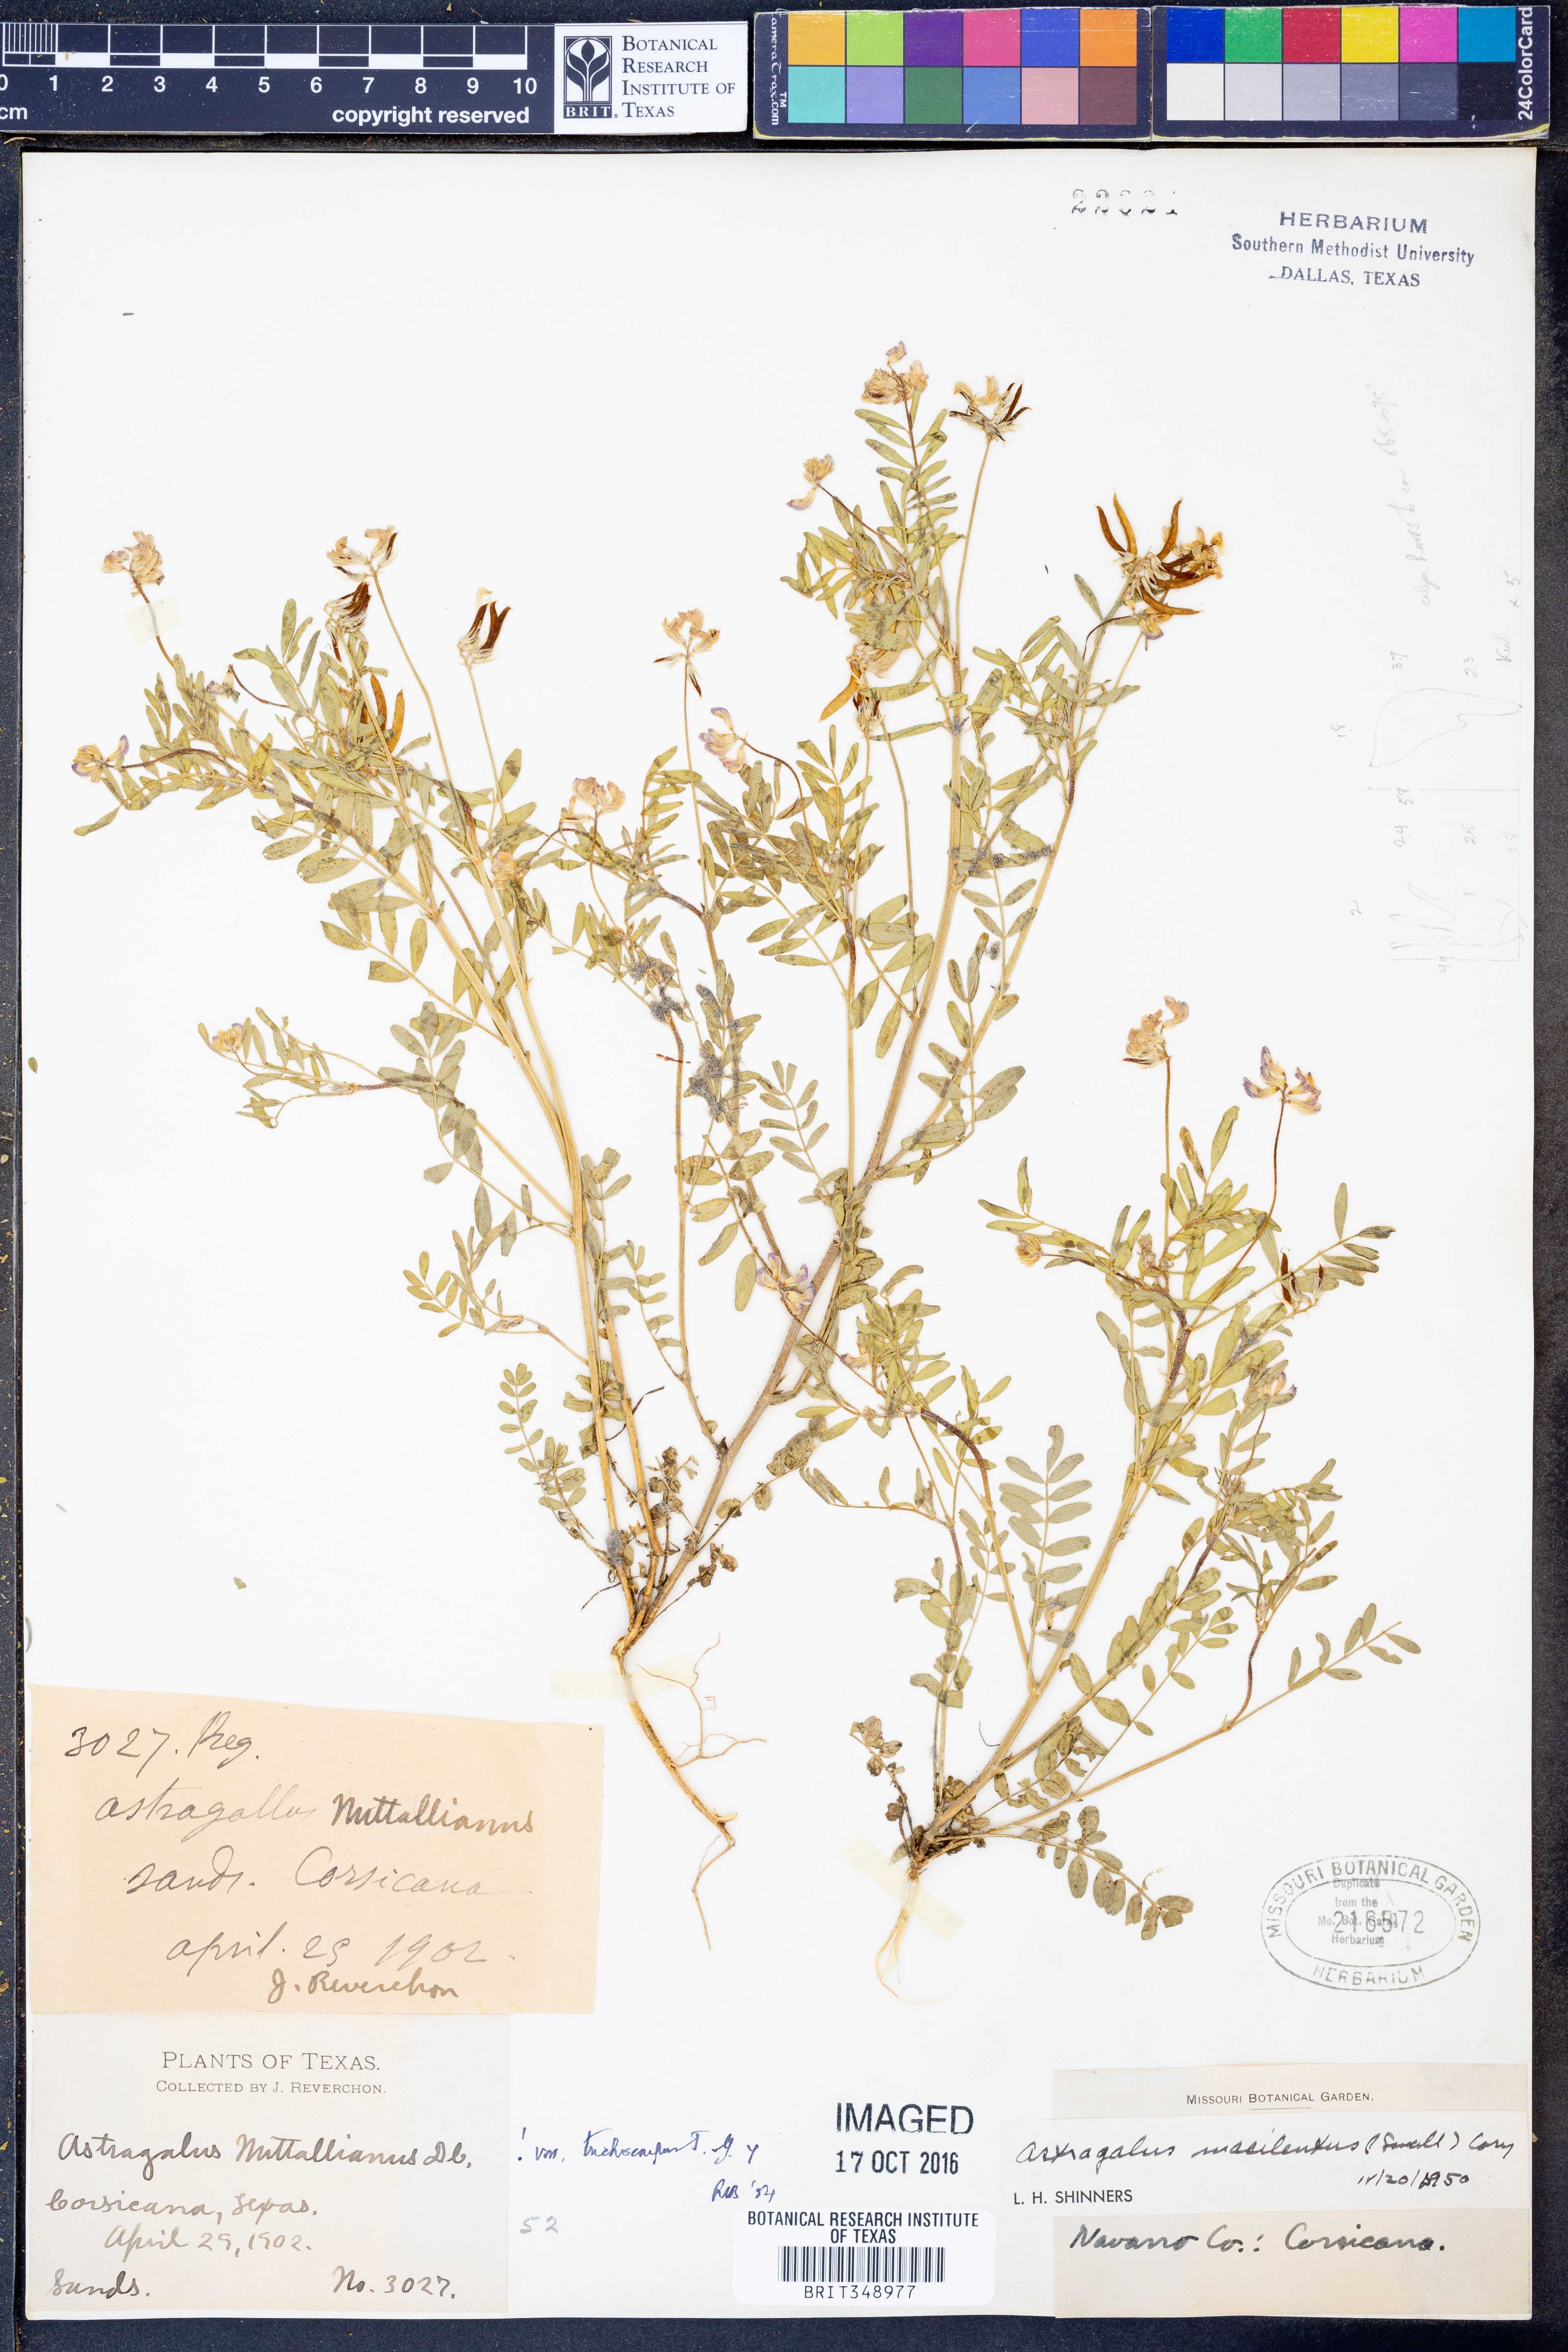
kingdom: Plantae
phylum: Tracheophyta
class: Magnoliopsida
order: Fabales
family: Fabaceae
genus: Astragalus
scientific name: Astragalus nuttallianus
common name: Smallflowered milkvetch
